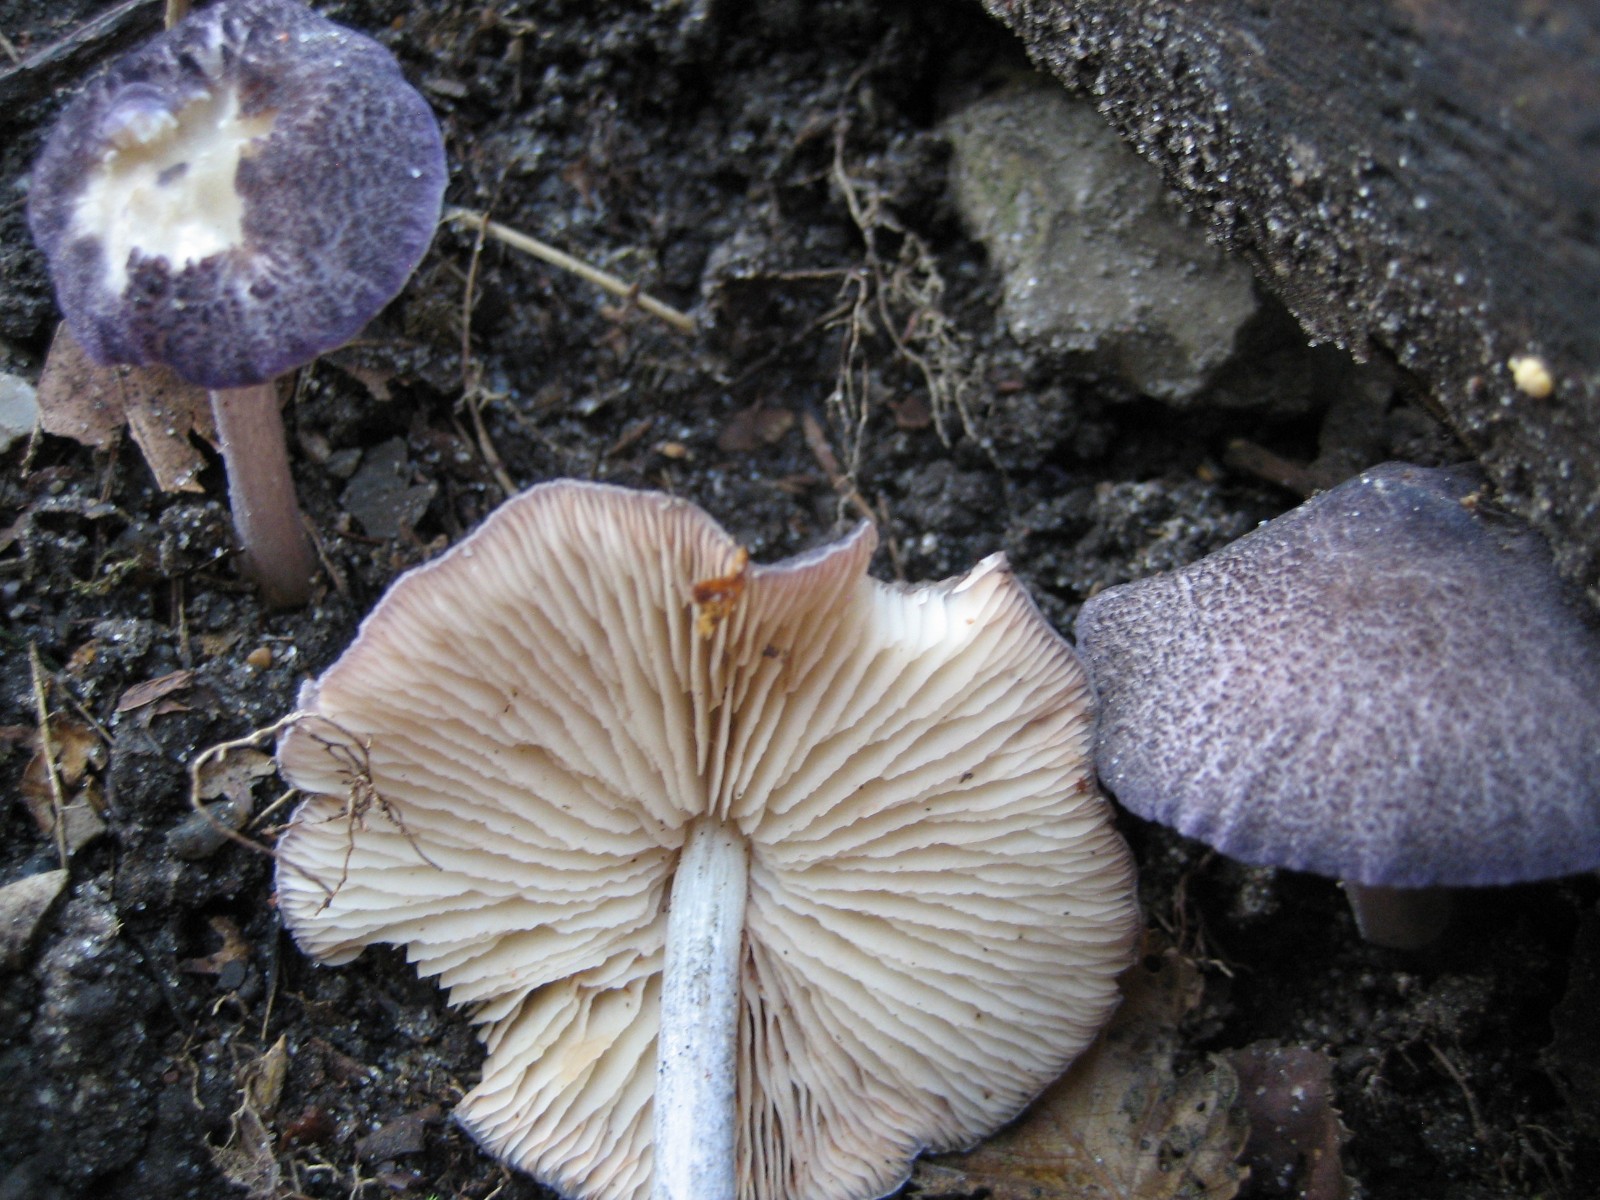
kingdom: Fungi
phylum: Basidiomycota
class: Agaricomycetes
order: Agaricales
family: Entolomataceae
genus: Entoloma
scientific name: Entoloma allochroum
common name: Rødviolet rødblad
